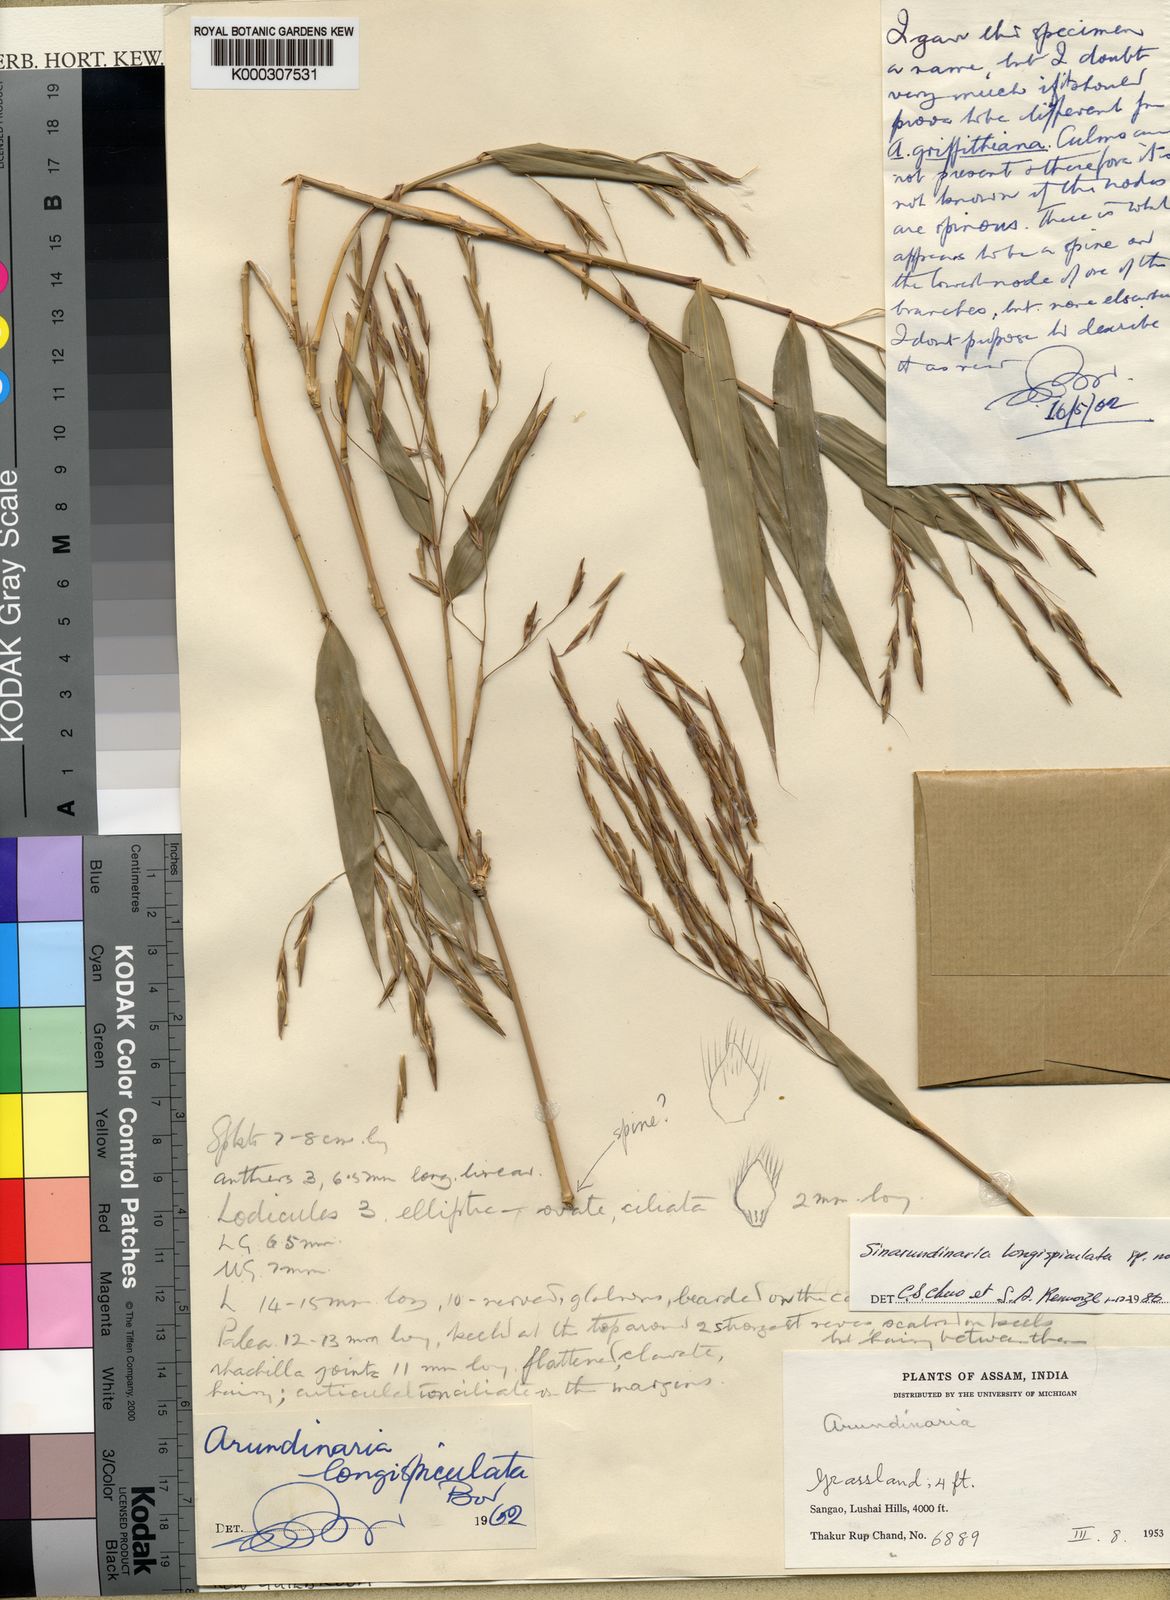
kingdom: Plantae
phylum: Tracheophyta
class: Liliopsida
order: Poales
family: Poaceae
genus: Chimonocalamus
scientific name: Chimonocalamus
